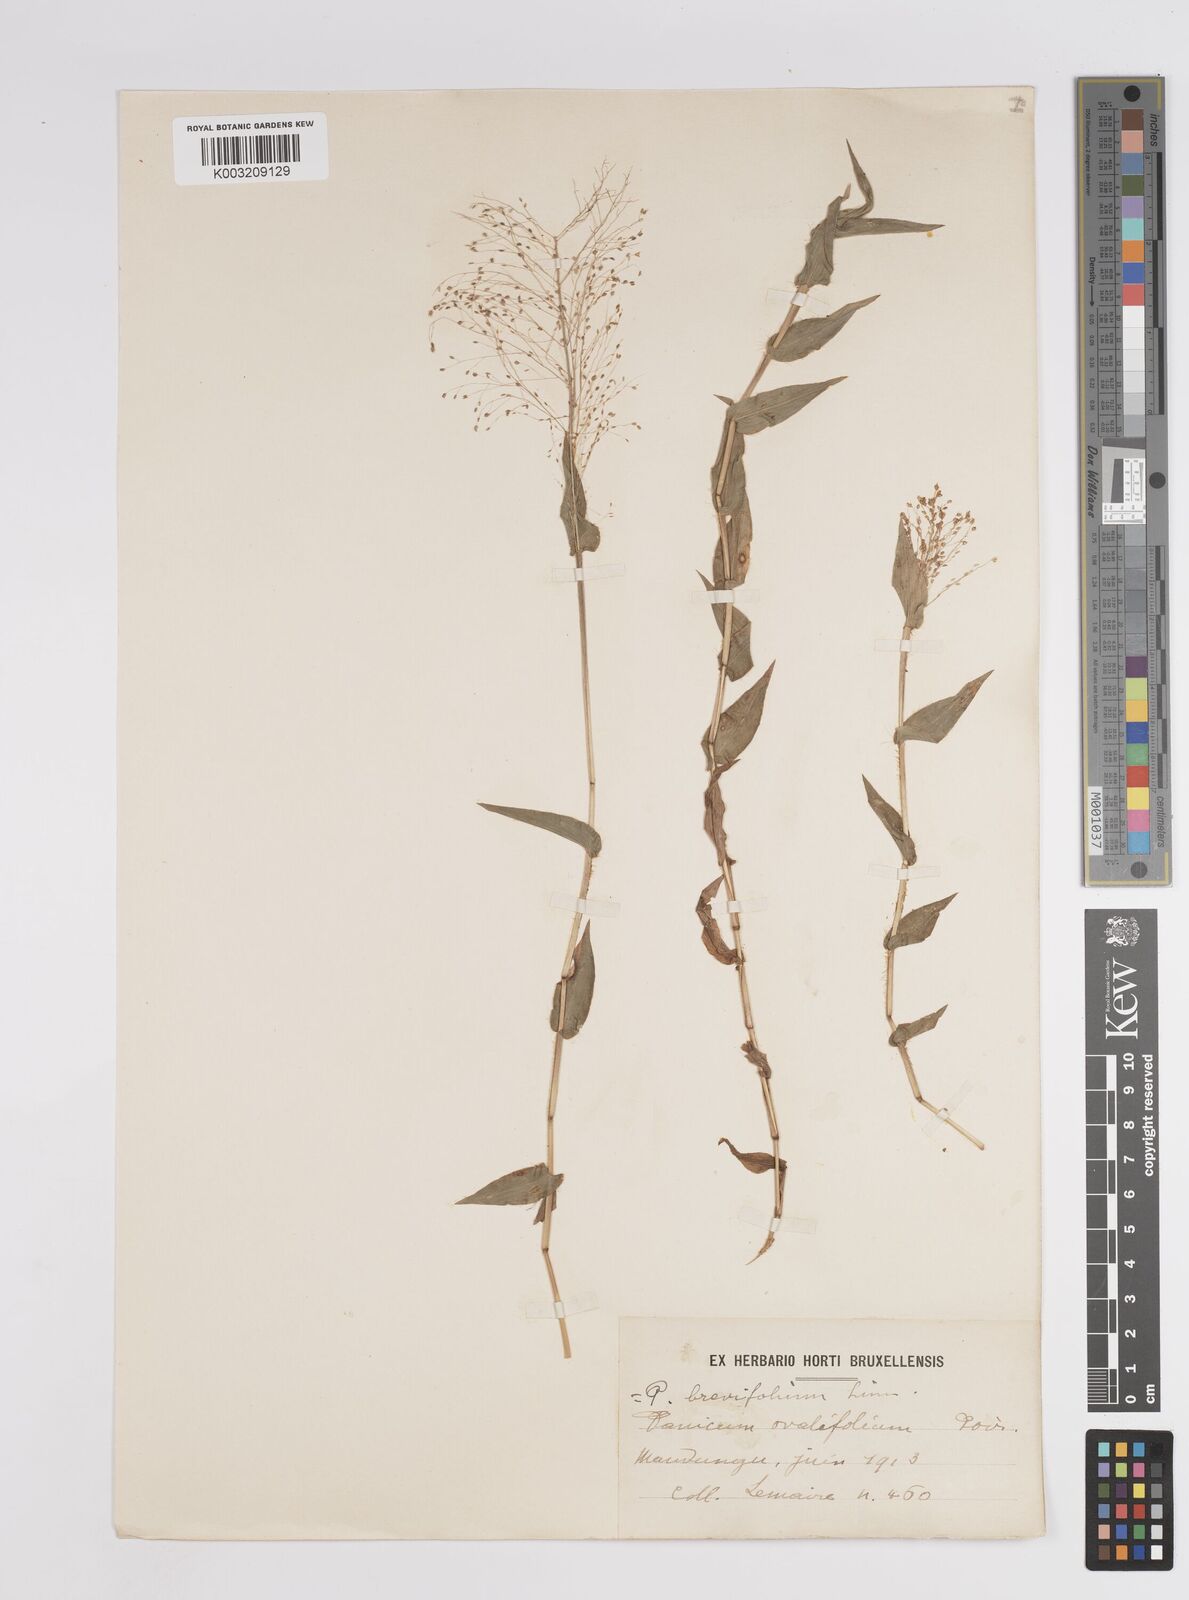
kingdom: Plantae
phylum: Tracheophyta
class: Liliopsida
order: Poales
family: Poaceae
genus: Panicum
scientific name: Panicum brevifolium
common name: Shortleaf panic grass
